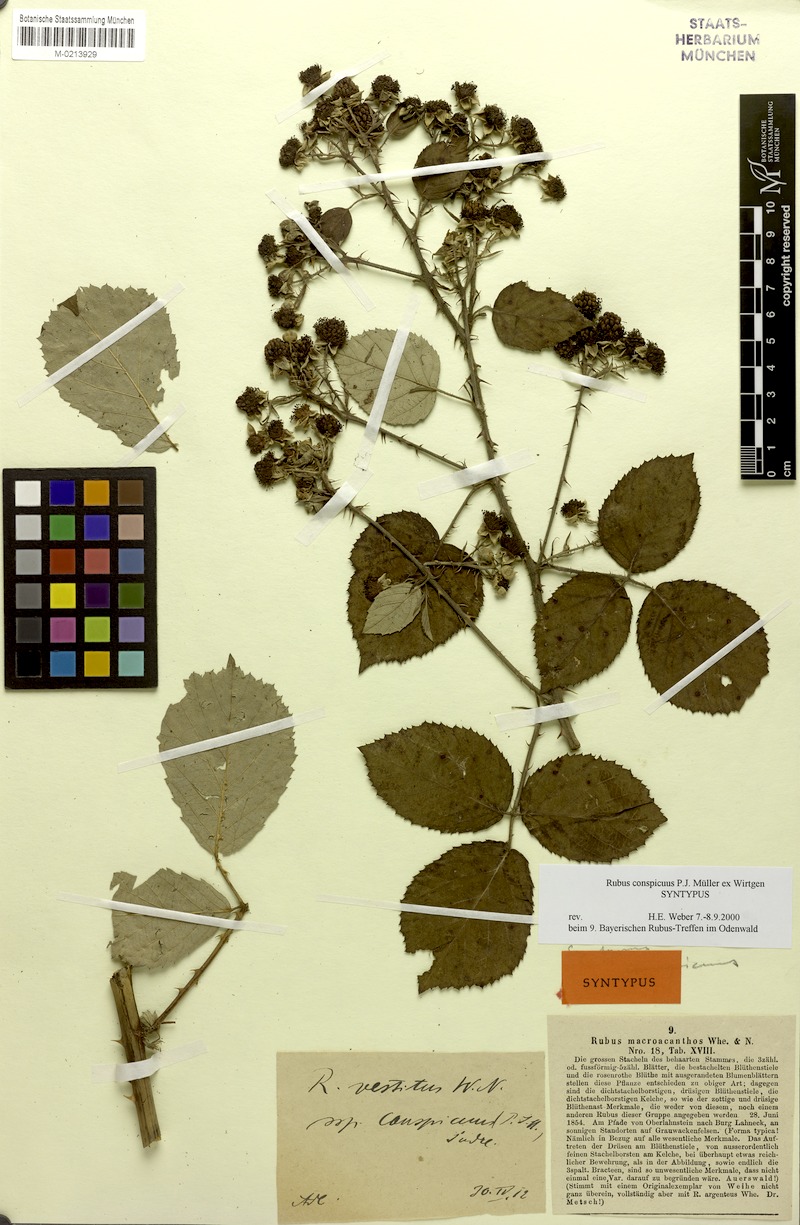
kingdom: Plantae
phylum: Tracheophyta
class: Magnoliopsida
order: Rosales
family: Rosaceae
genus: Rubus
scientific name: Rubus conspicuus
